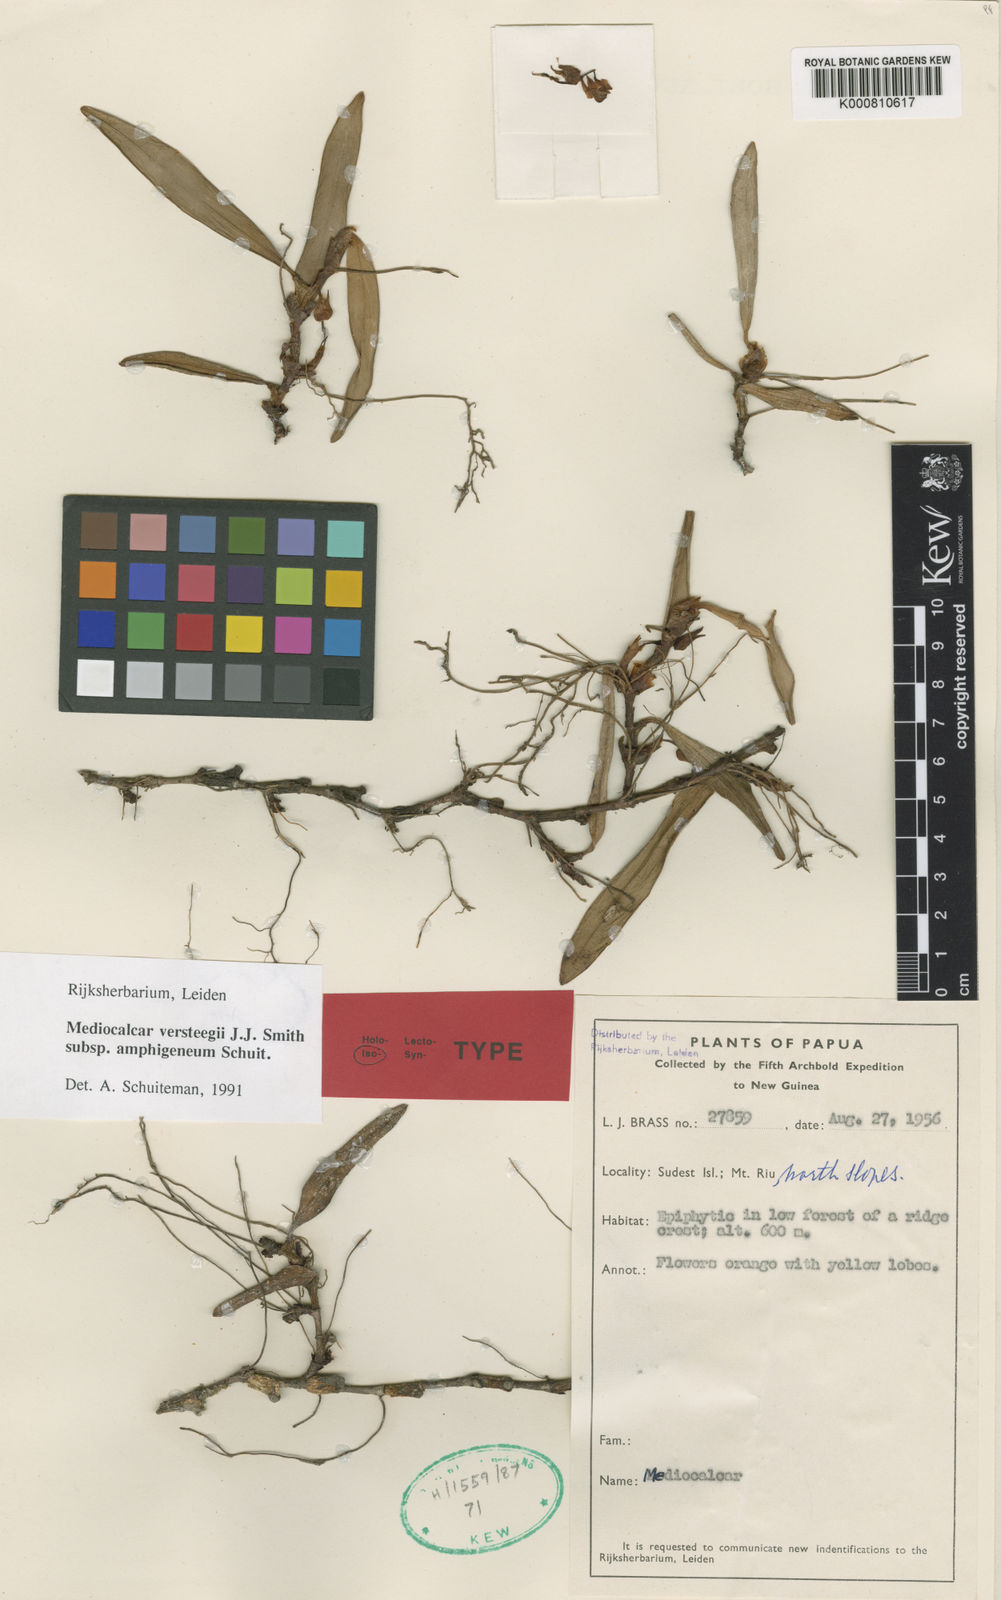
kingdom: Plantae
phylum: Tracheophyta
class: Liliopsida
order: Asparagales
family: Orchidaceae
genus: Mediocalcar
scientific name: Mediocalcar versteegii
